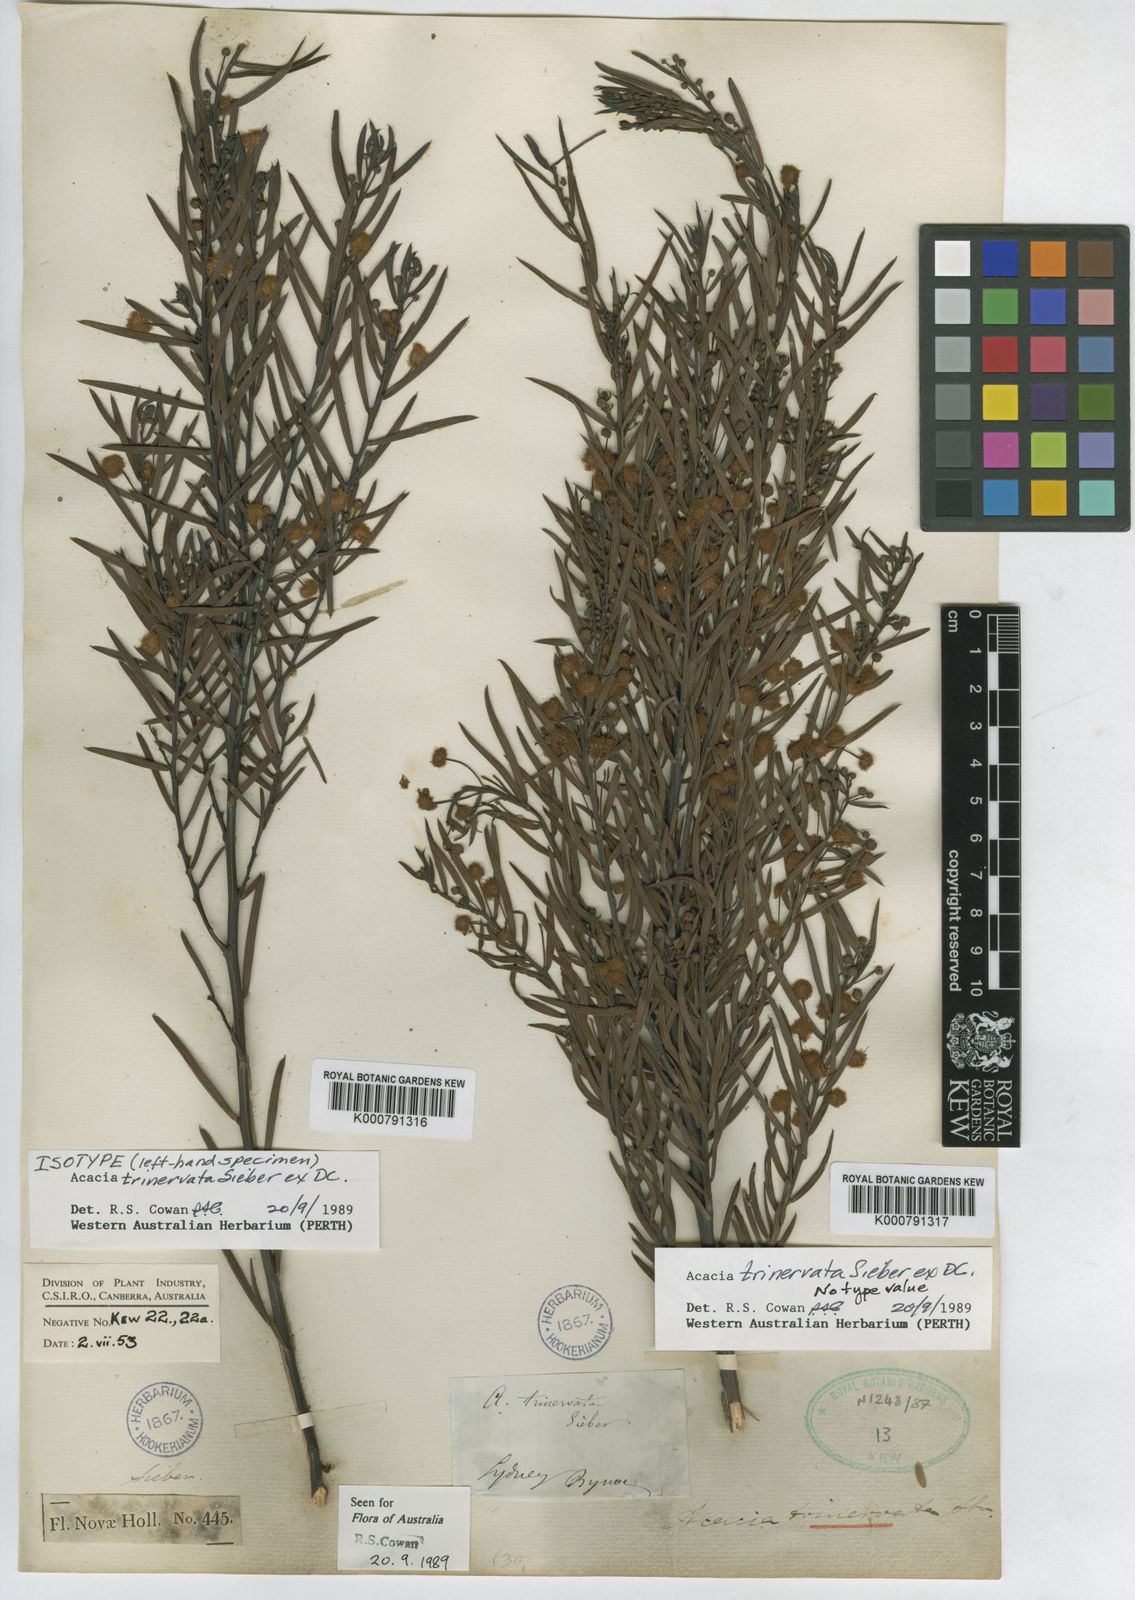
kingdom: Plantae
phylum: Tracheophyta
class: Magnoliopsida
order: Fabales
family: Fabaceae
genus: Acacia
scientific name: Acacia trinervata
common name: Three-nerve wattle
